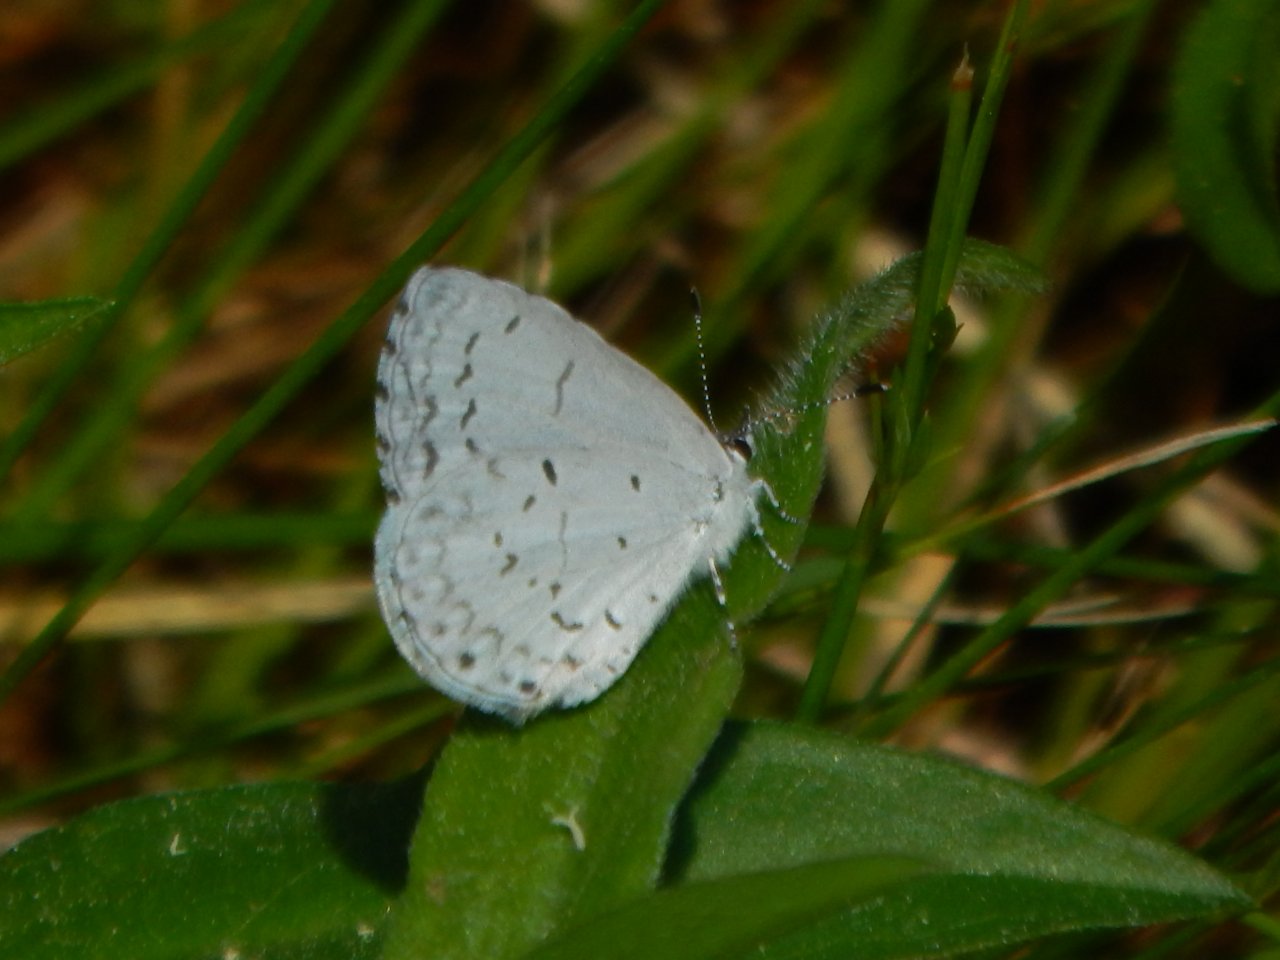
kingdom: Animalia
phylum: Arthropoda
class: Insecta
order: Lepidoptera
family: Lycaenidae
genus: Celastrina
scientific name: Celastrina
